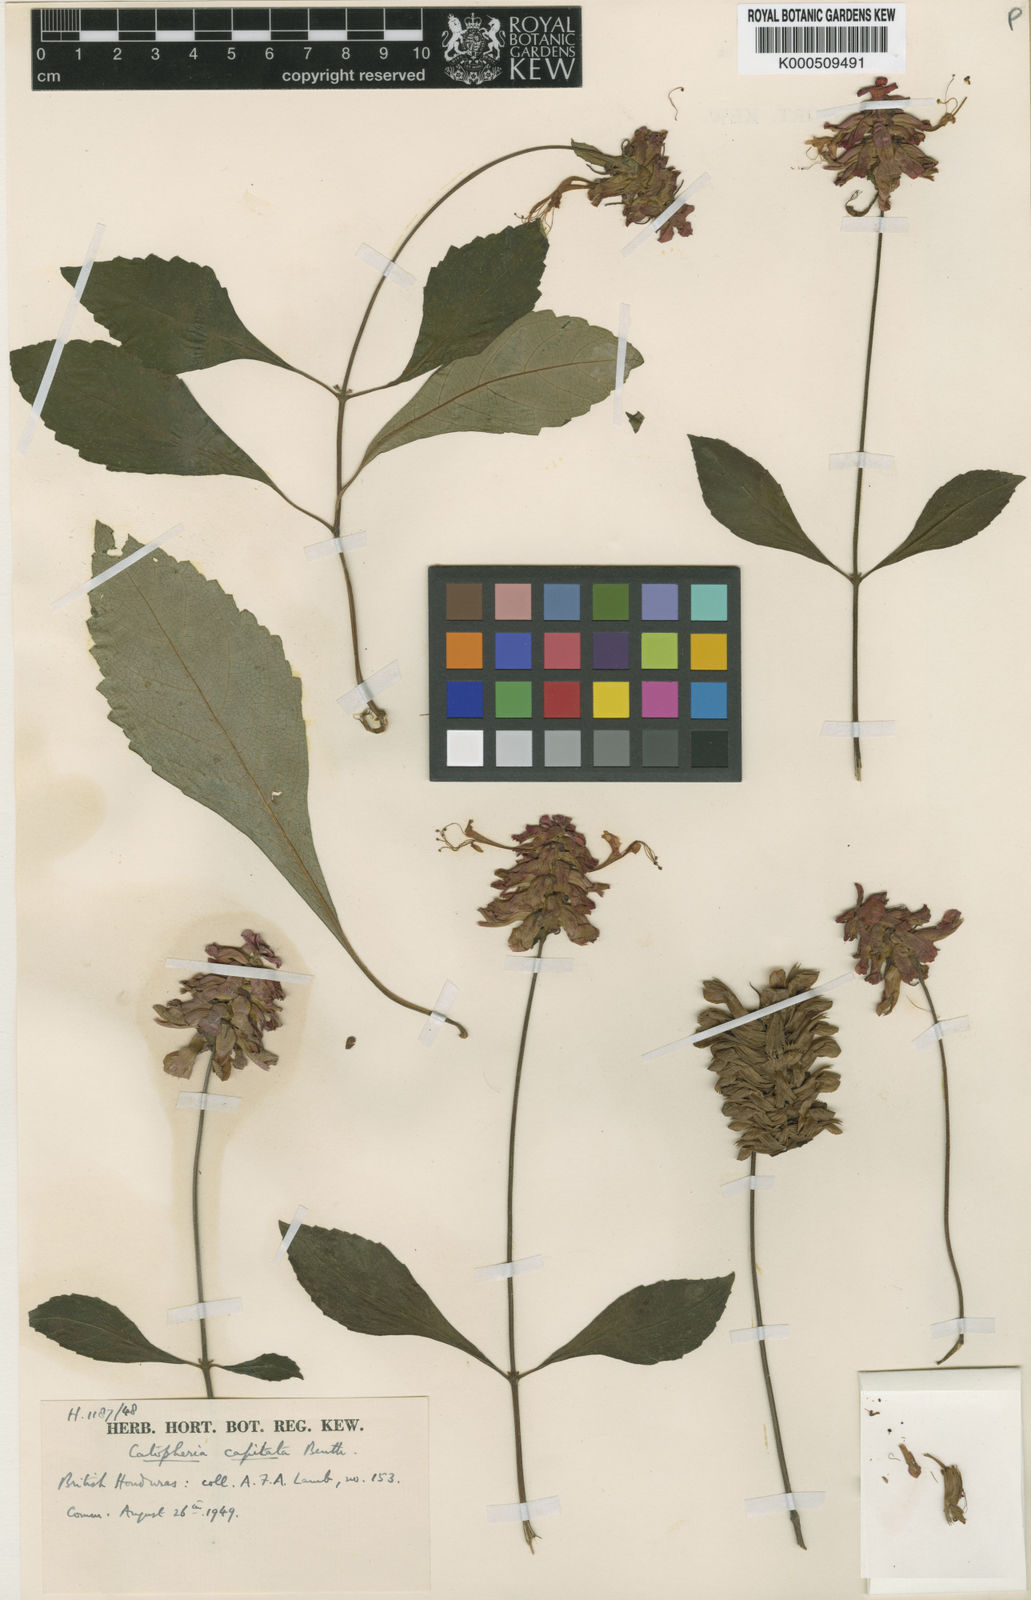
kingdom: Plantae
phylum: Tracheophyta
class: Magnoliopsida
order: Lamiales
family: Lamiaceae
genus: Catoferia
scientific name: Catoferia capitata
